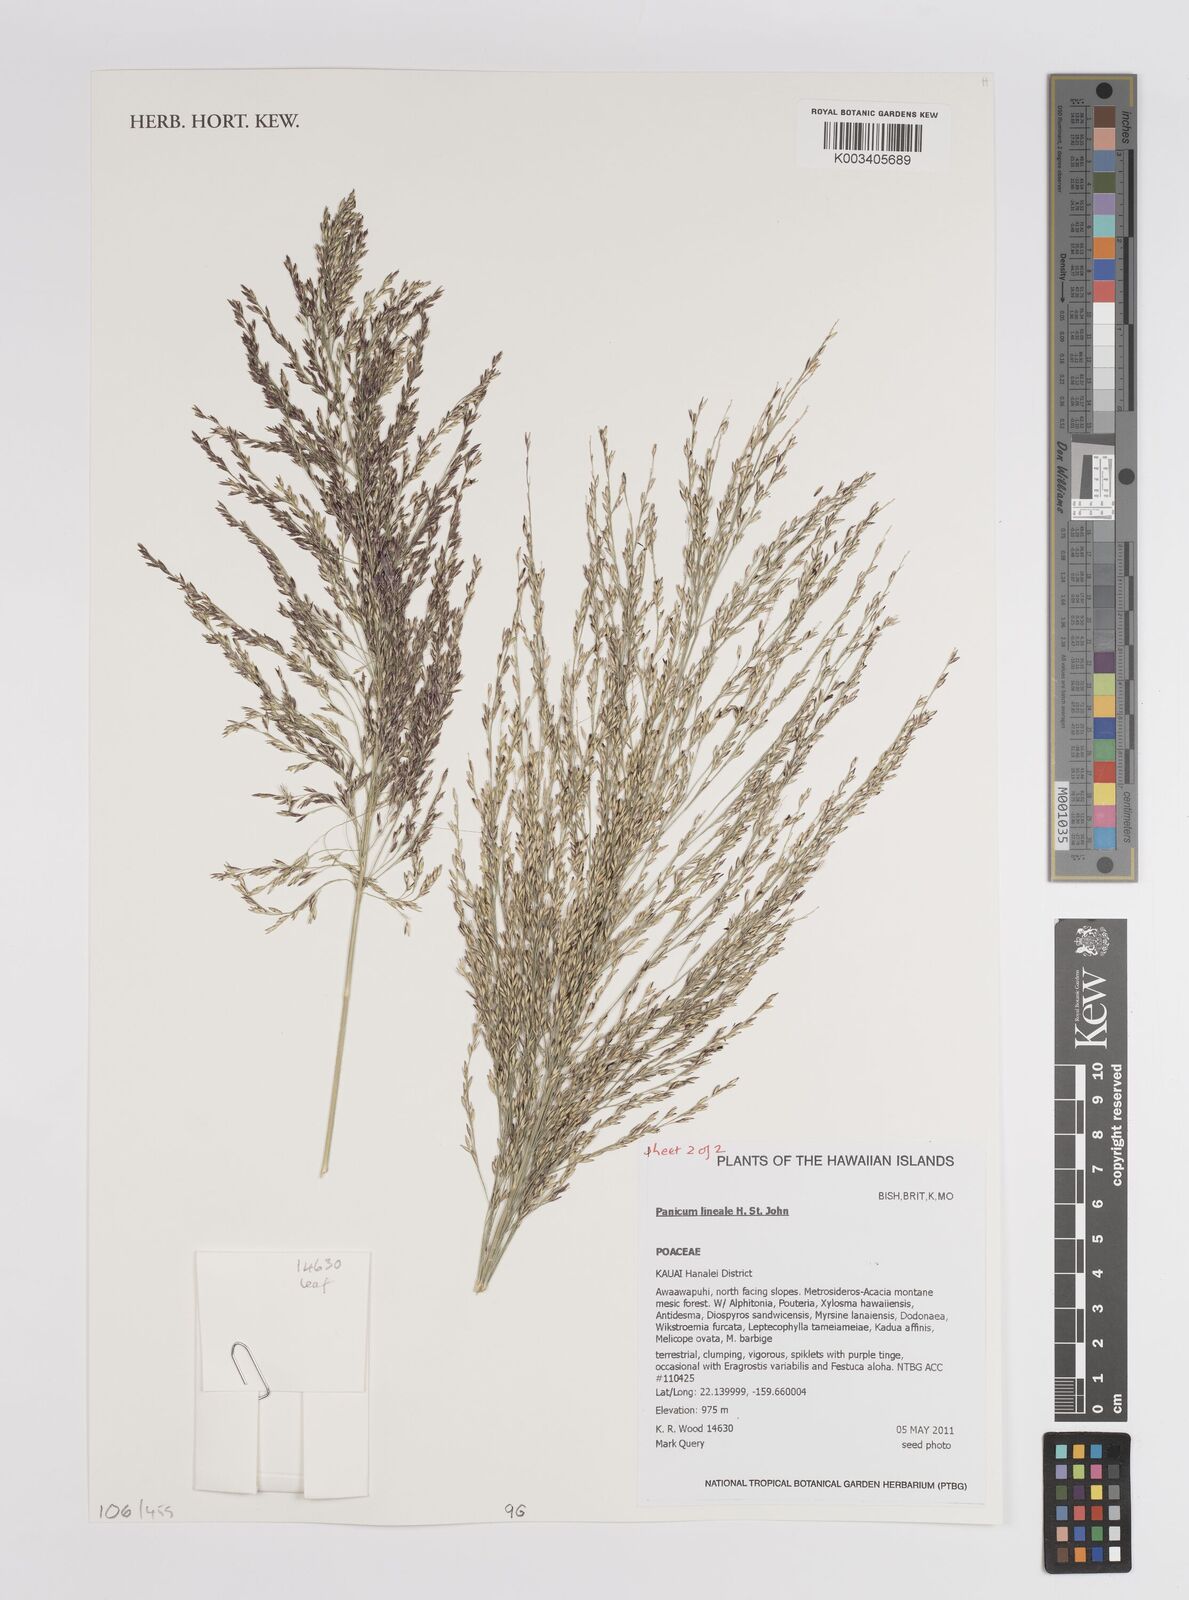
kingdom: Plantae
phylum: Tracheophyta
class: Liliopsida
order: Poales
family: Poaceae
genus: Panicum
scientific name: Panicum lineale
